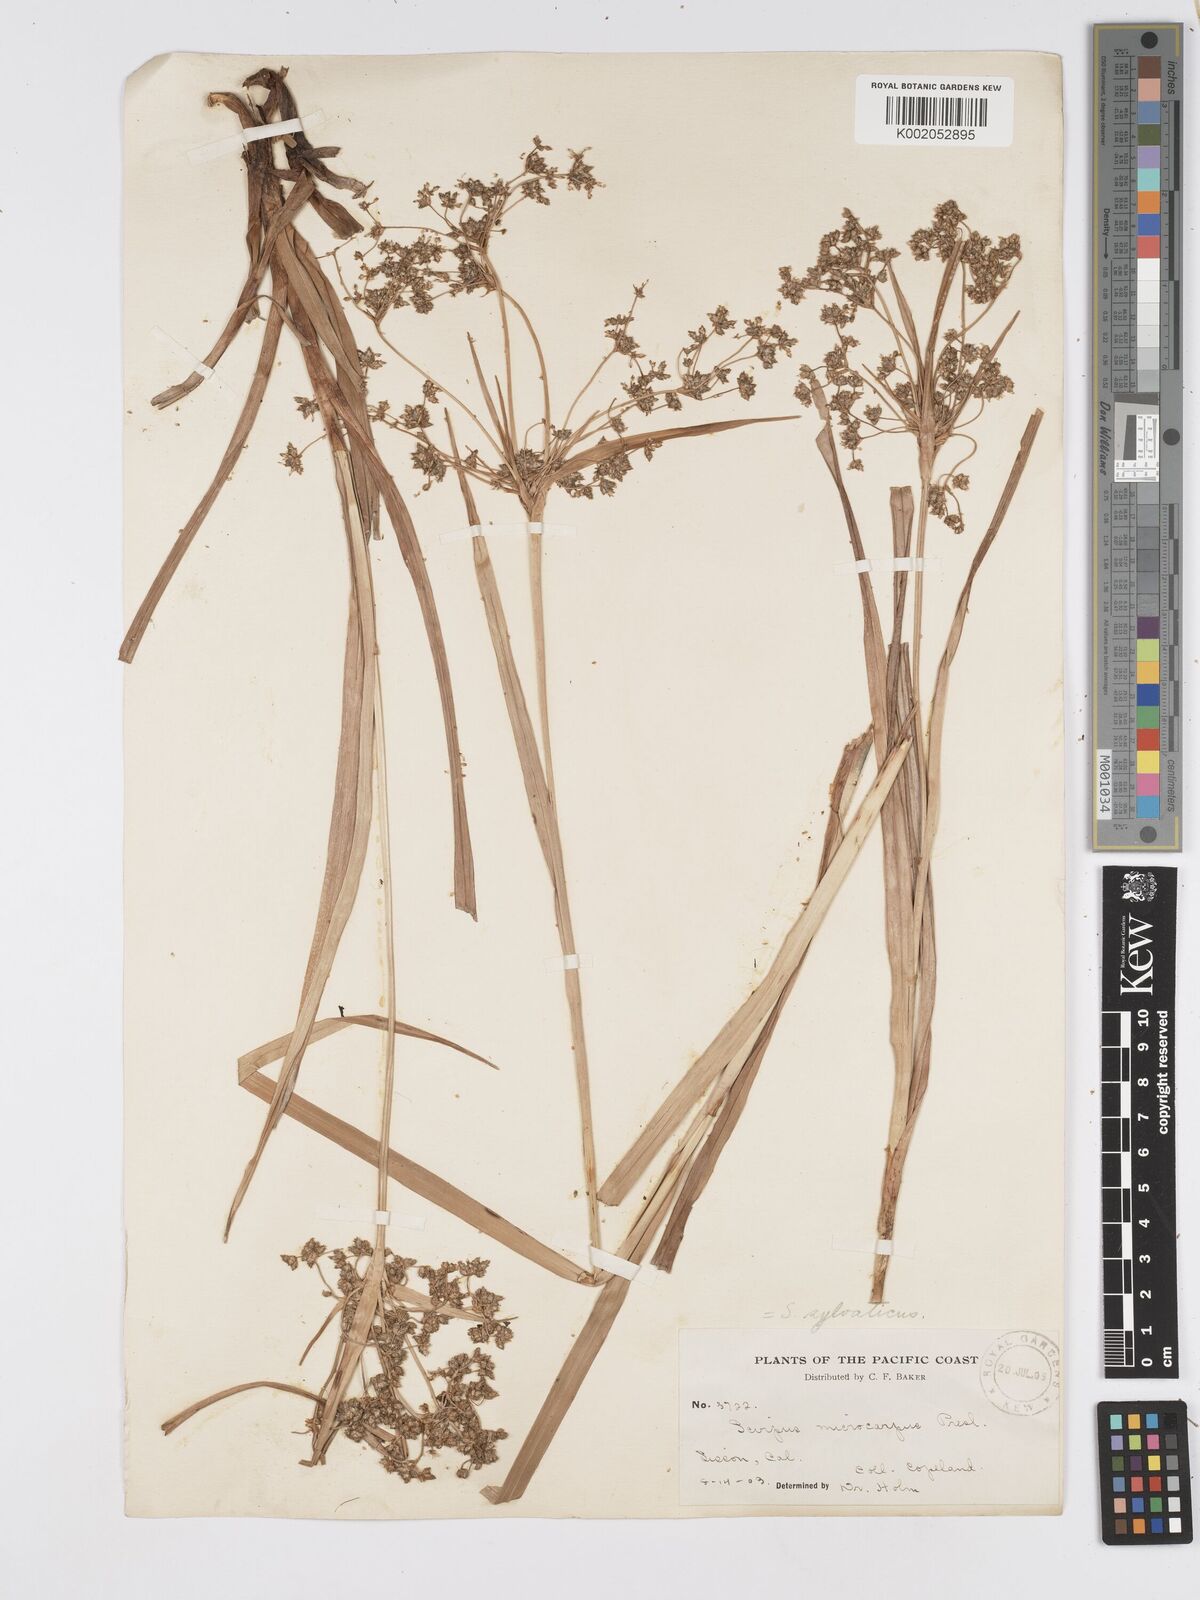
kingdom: Plantae
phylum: Tracheophyta
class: Liliopsida
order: Poales
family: Cyperaceae
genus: Scirpus
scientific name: Scirpus sylvaticus
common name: Wood club-rush
